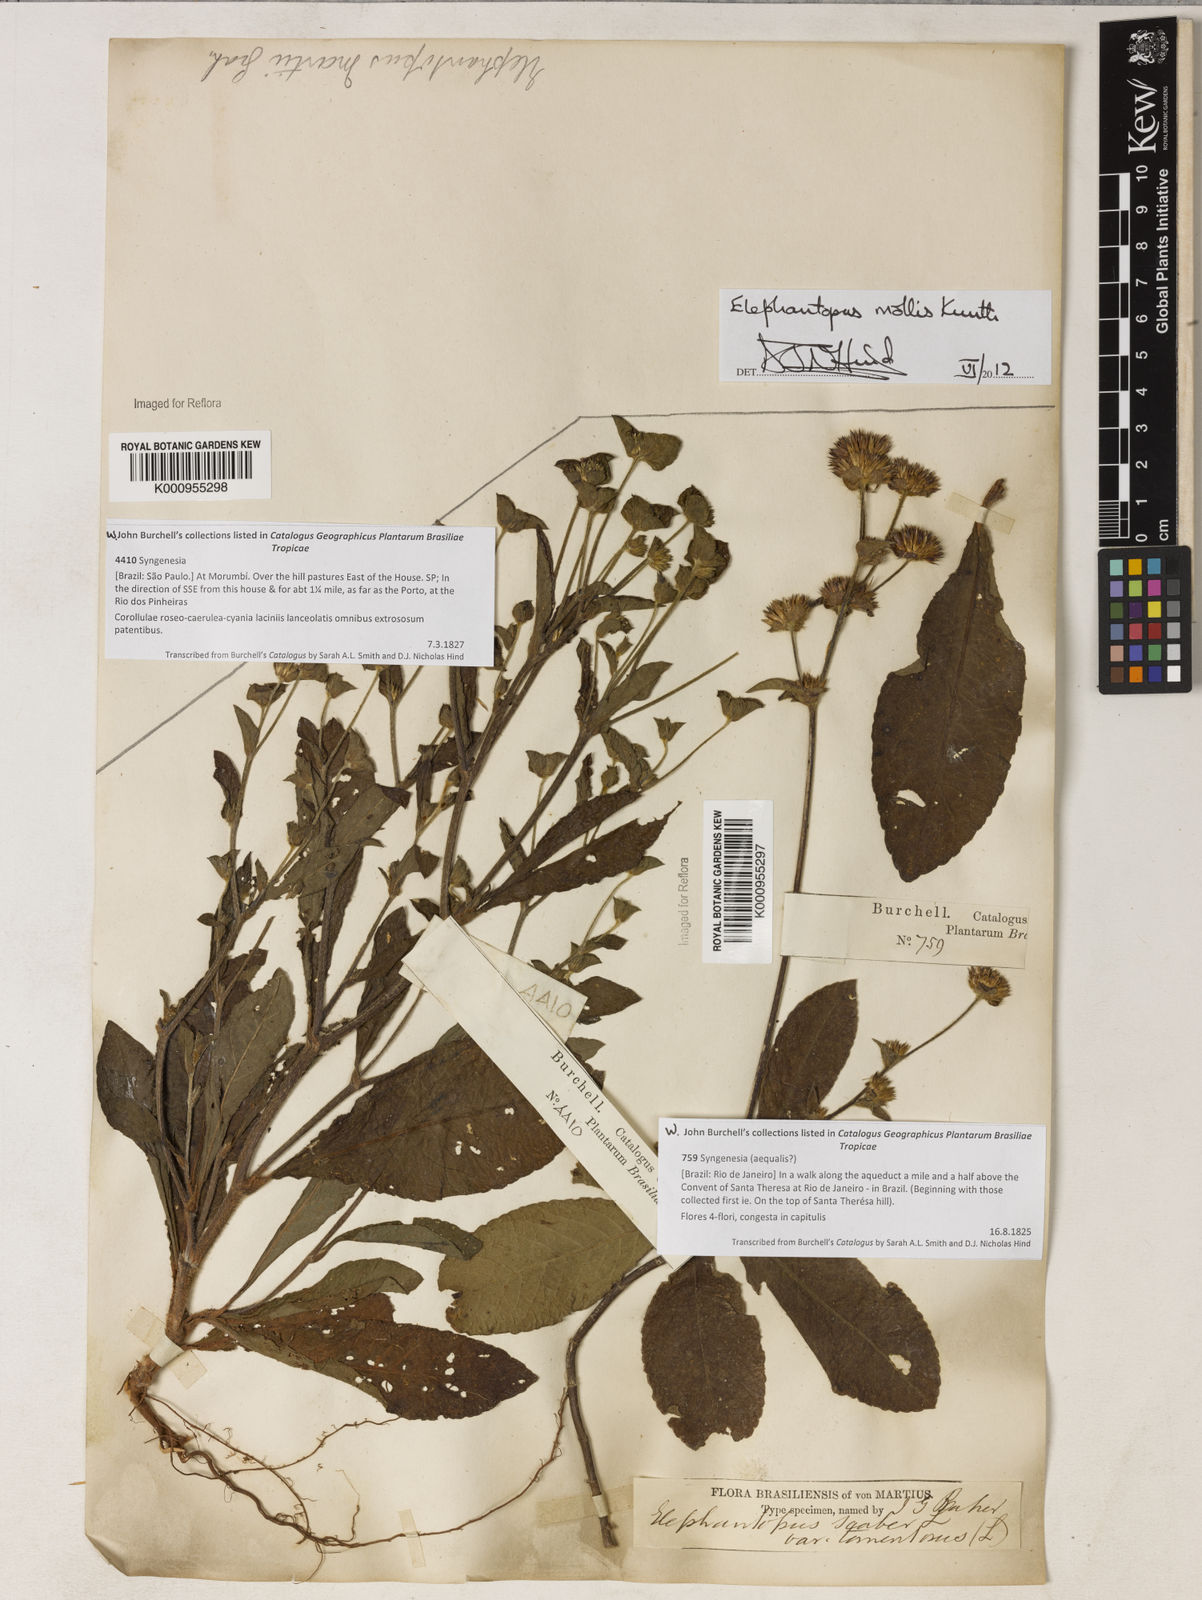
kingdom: Plantae
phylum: Tracheophyta
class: Magnoliopsida
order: Asterales
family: Asteraceae
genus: Elephantopus
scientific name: Elephantopus mollis
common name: Soft elephantsfoot
